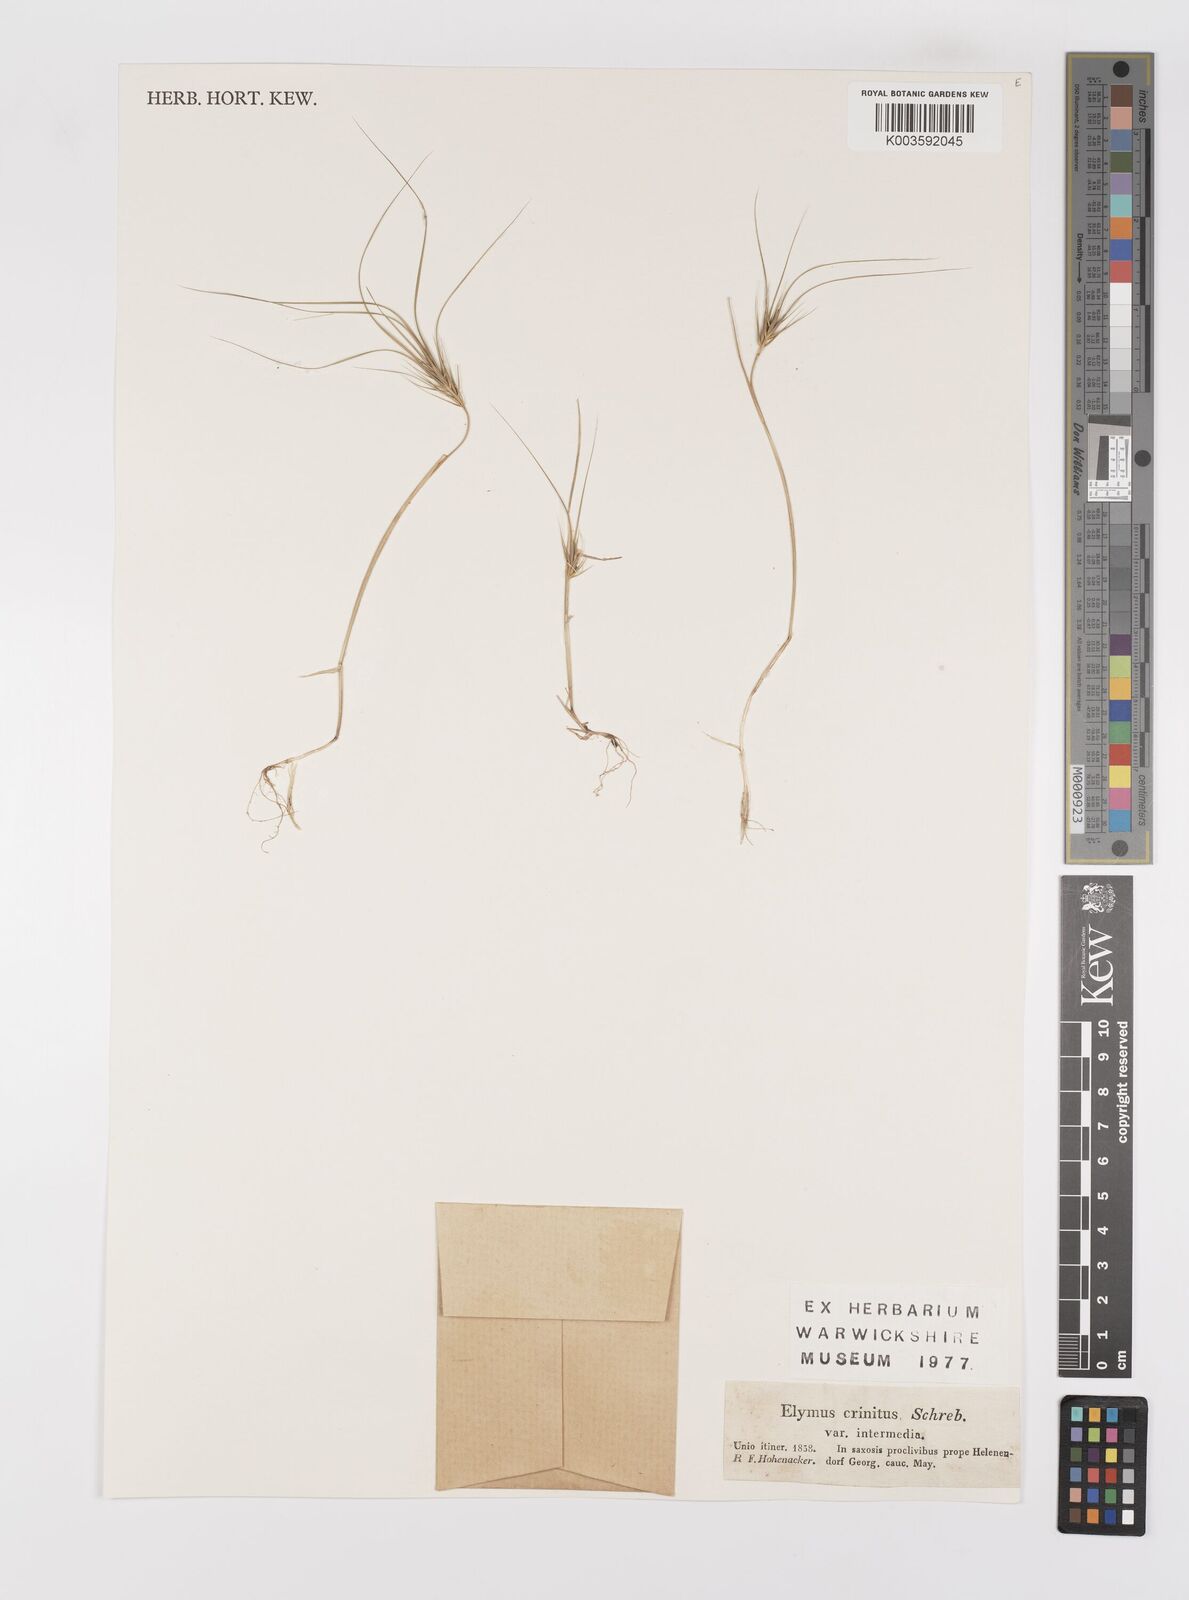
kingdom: Plantae
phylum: Tracheophyta
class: Liliopsida
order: Poales
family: Poaceae
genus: Taeniatherum
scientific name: Taeniatherum caput-medusae
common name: Medusahead
